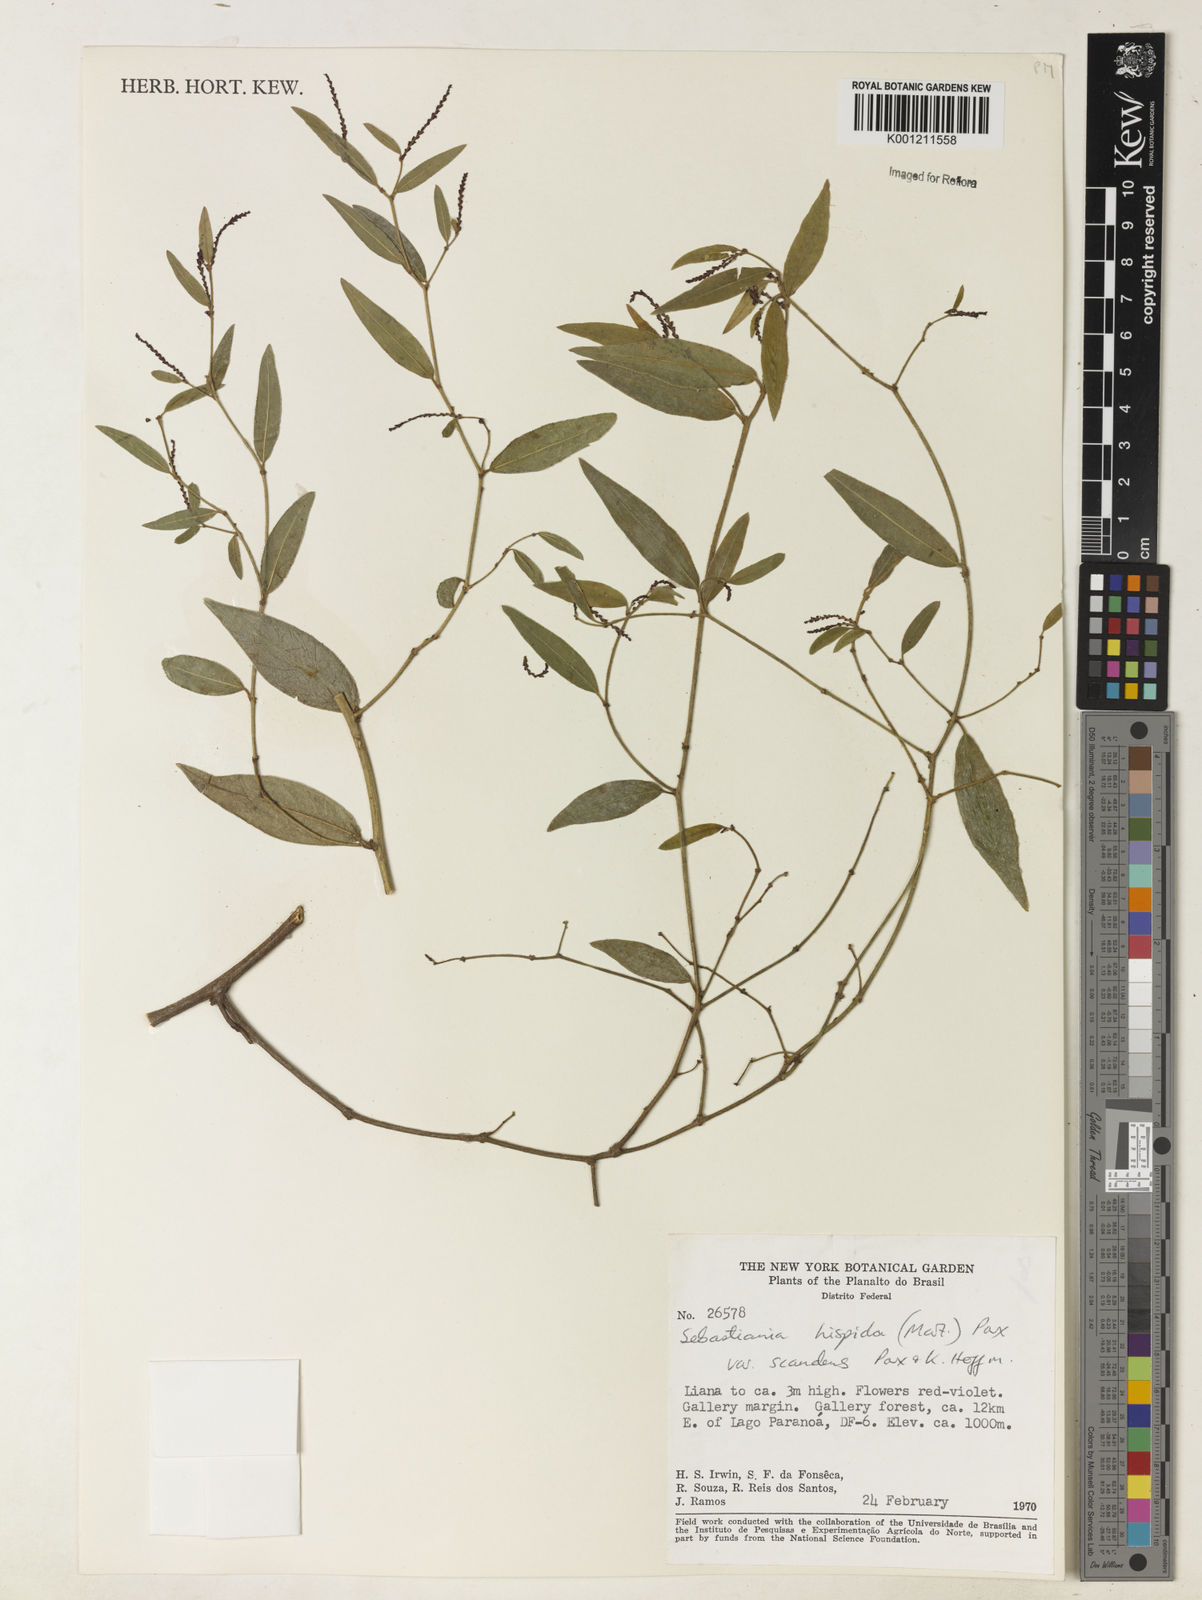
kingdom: Plantae
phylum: Tracheophyta
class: Magnoliopsida
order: Malpighiales
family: Euphorbiaceae
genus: Microstachys
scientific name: Microstachys hispida
